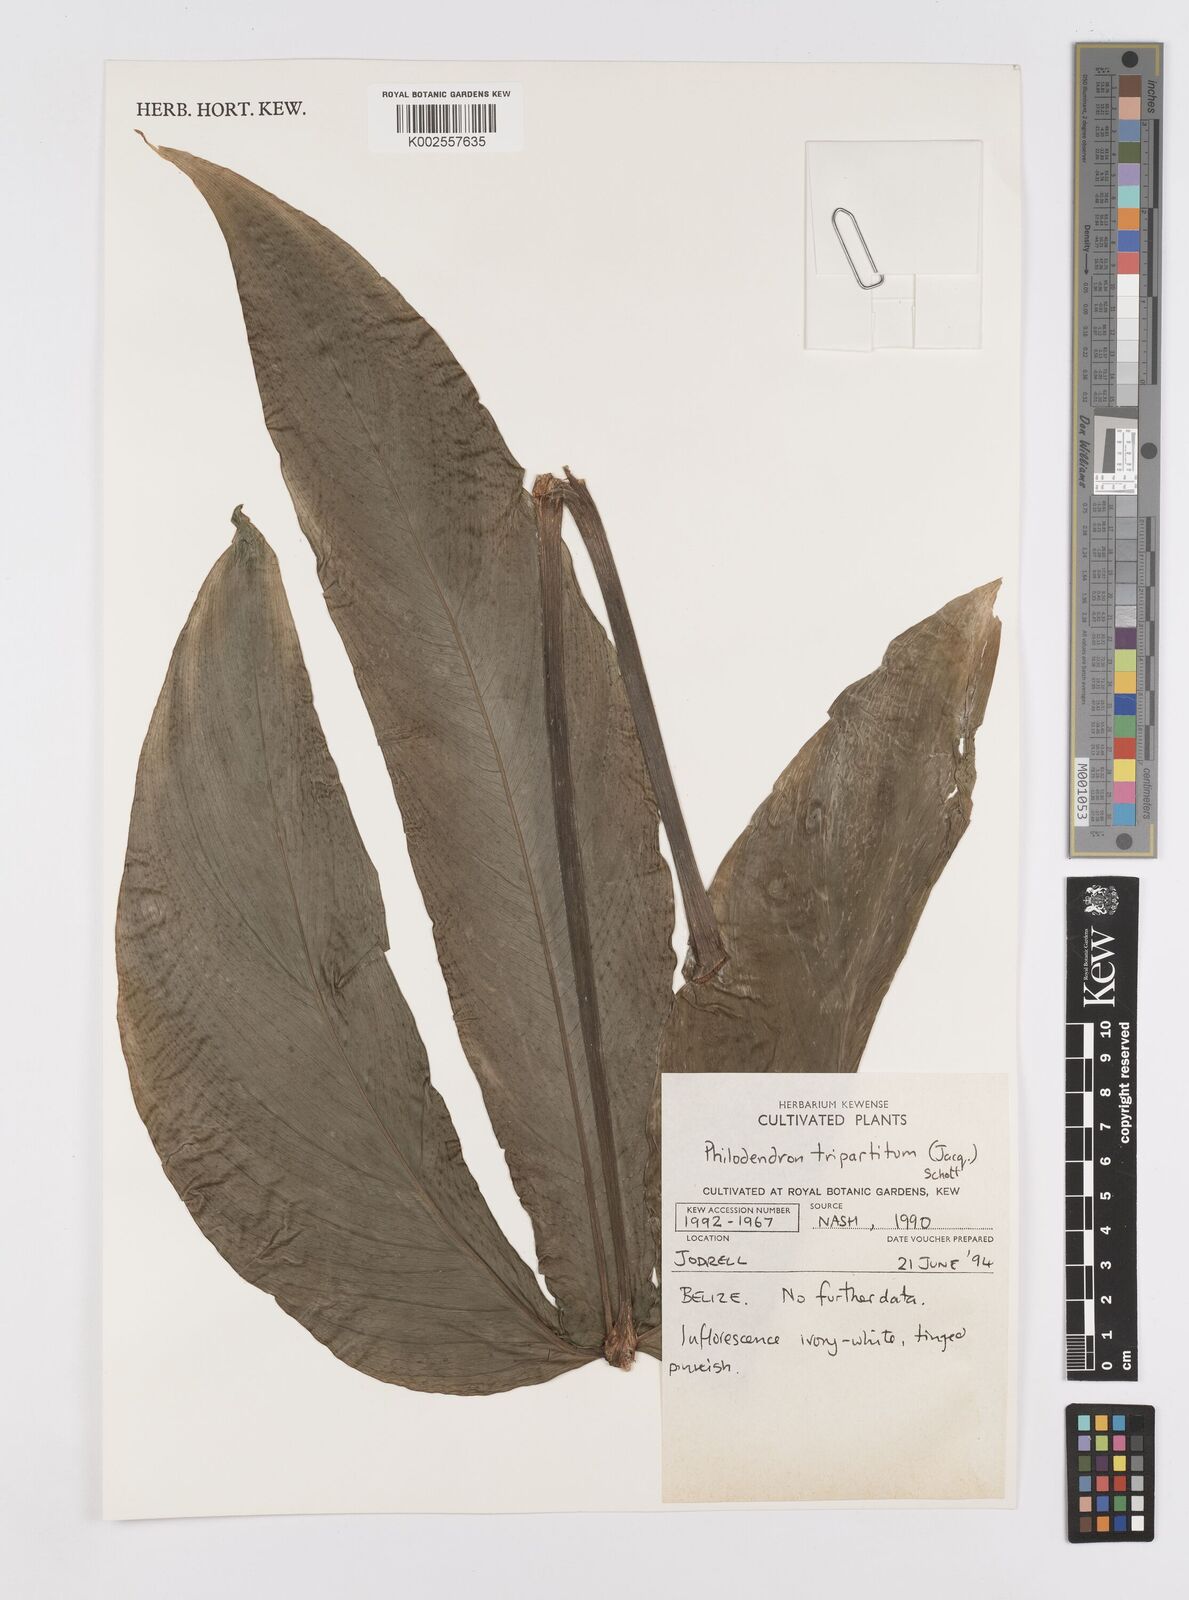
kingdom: Plantae
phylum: Tracheophyta
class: Liliopsida
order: Alismatales
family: Araceae
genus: Philodendron
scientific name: Philodendron tripartitum
